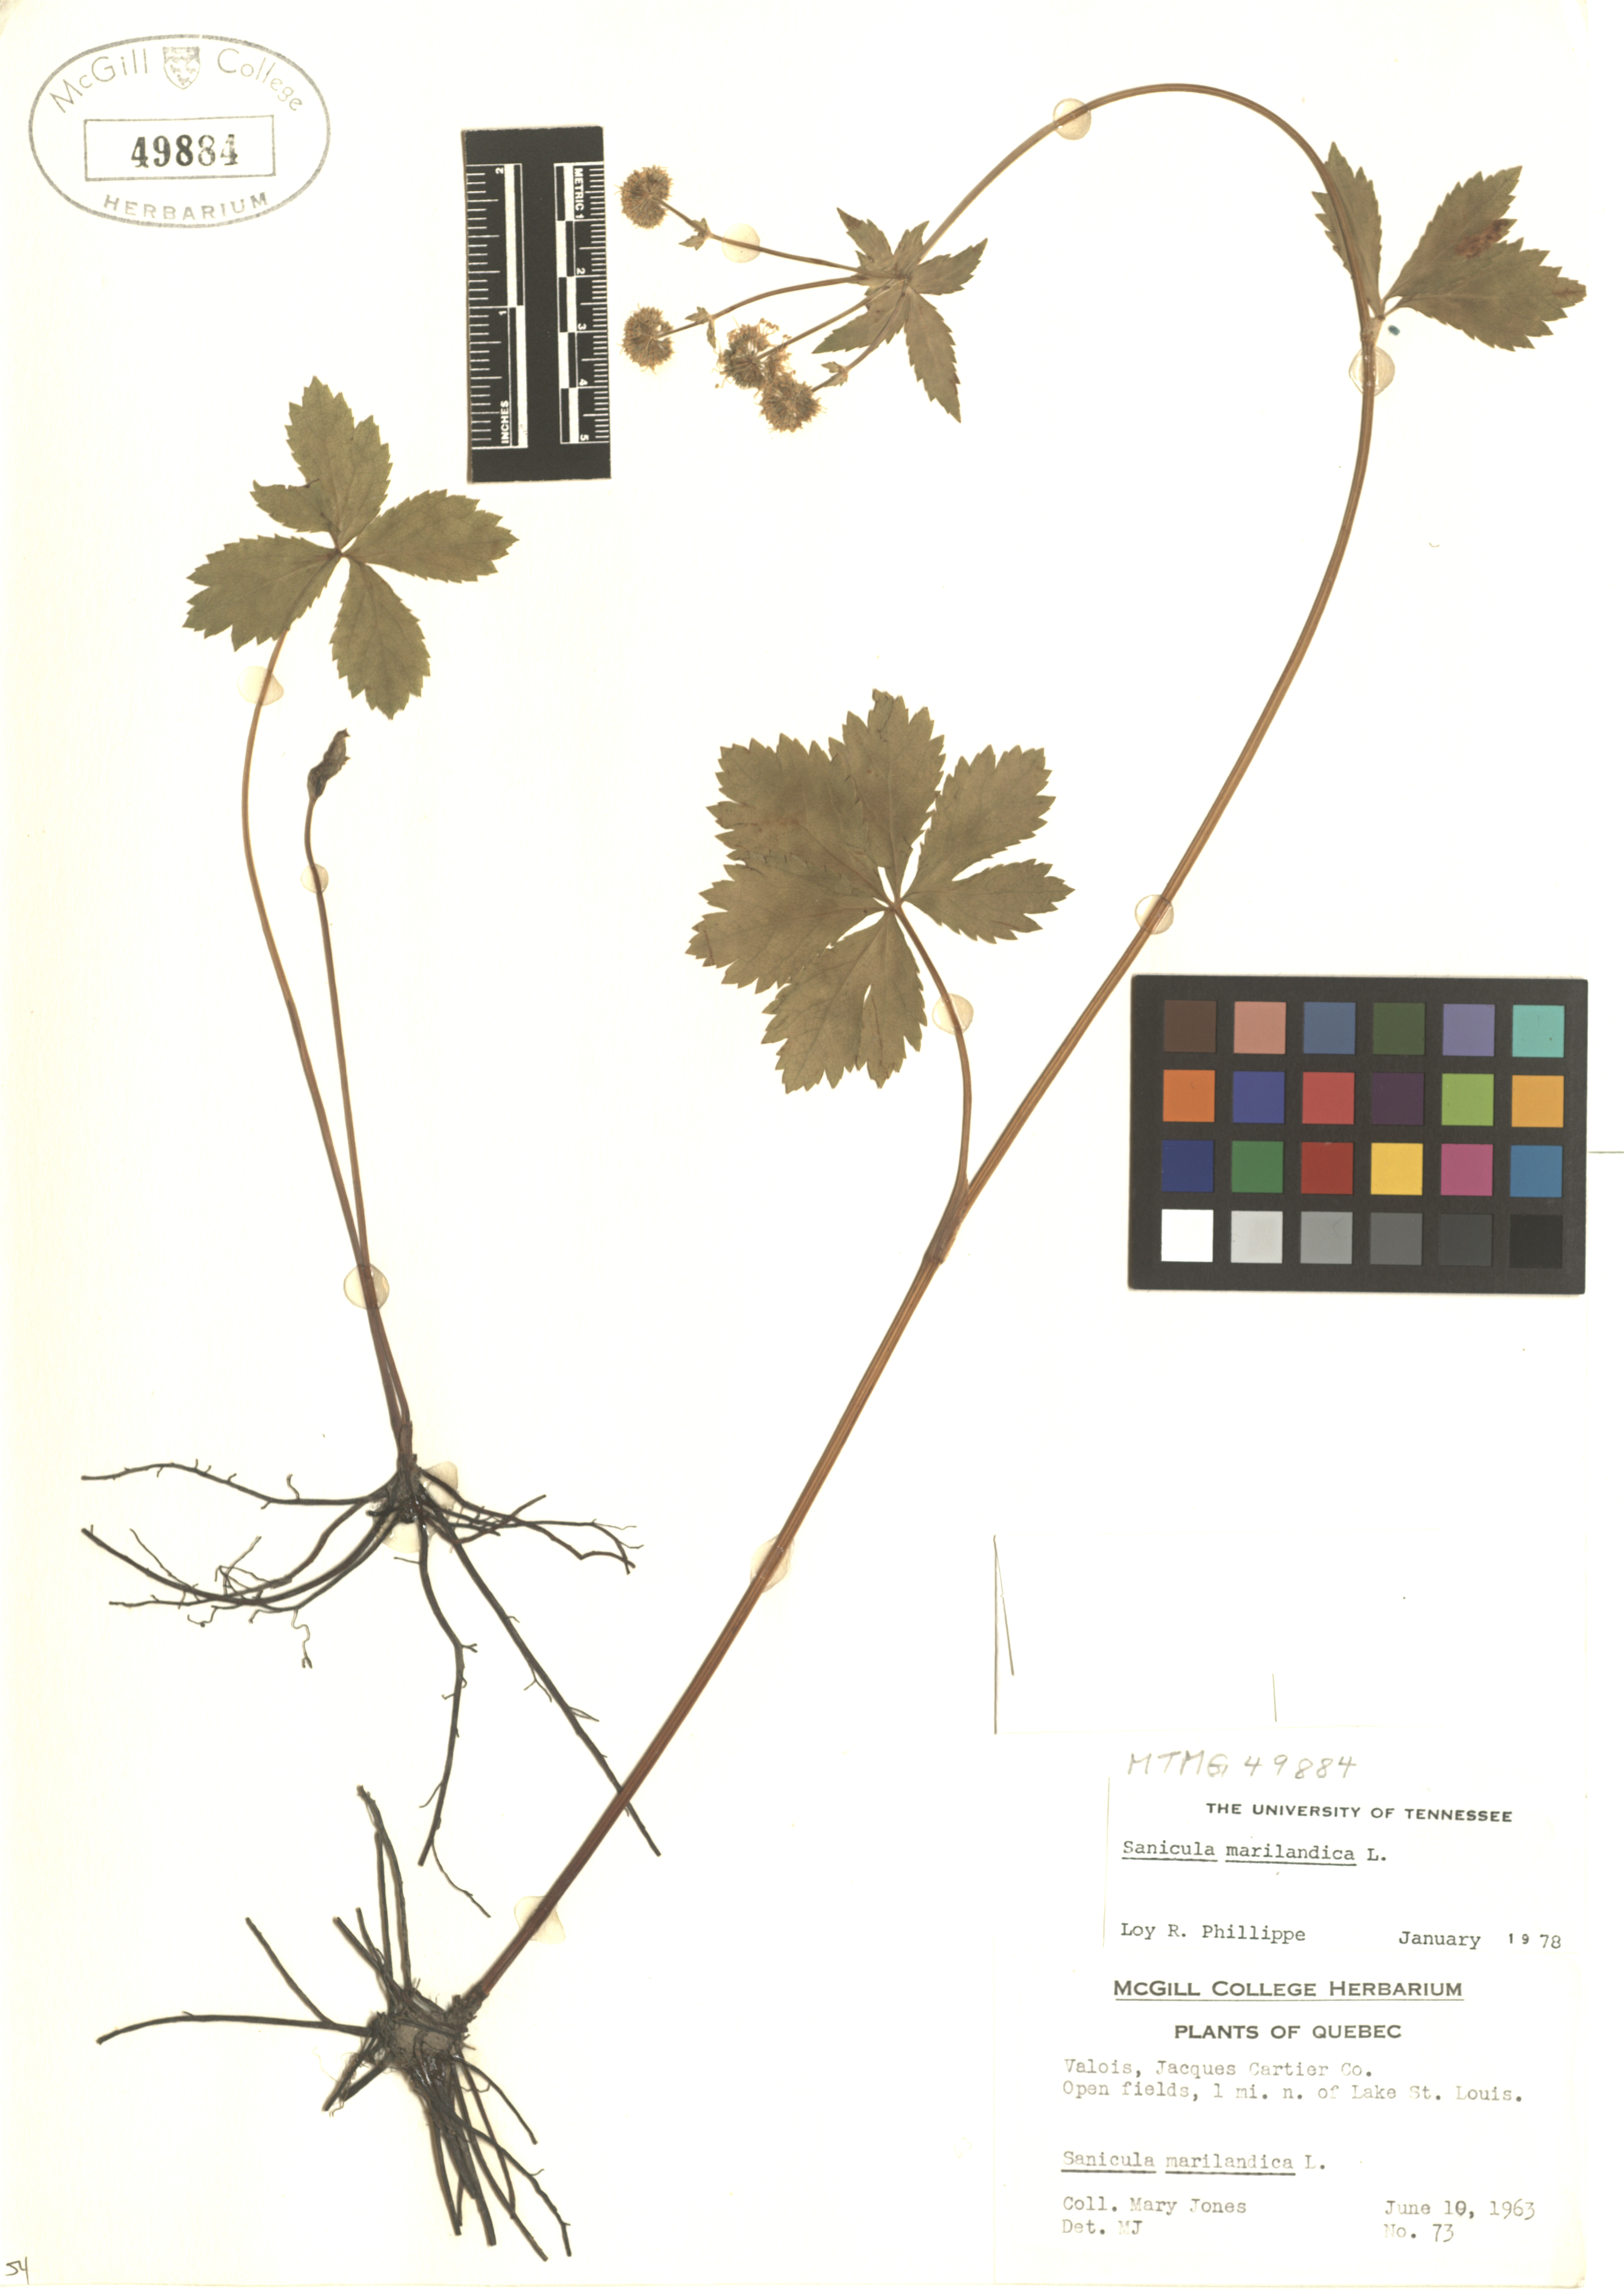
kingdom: Plantae
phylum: Tracheophyta
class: Magnoliopsida
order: Apiales
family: Apiaceae
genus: Sanicula
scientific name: Sanicula marilandica
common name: Black snakeroot
